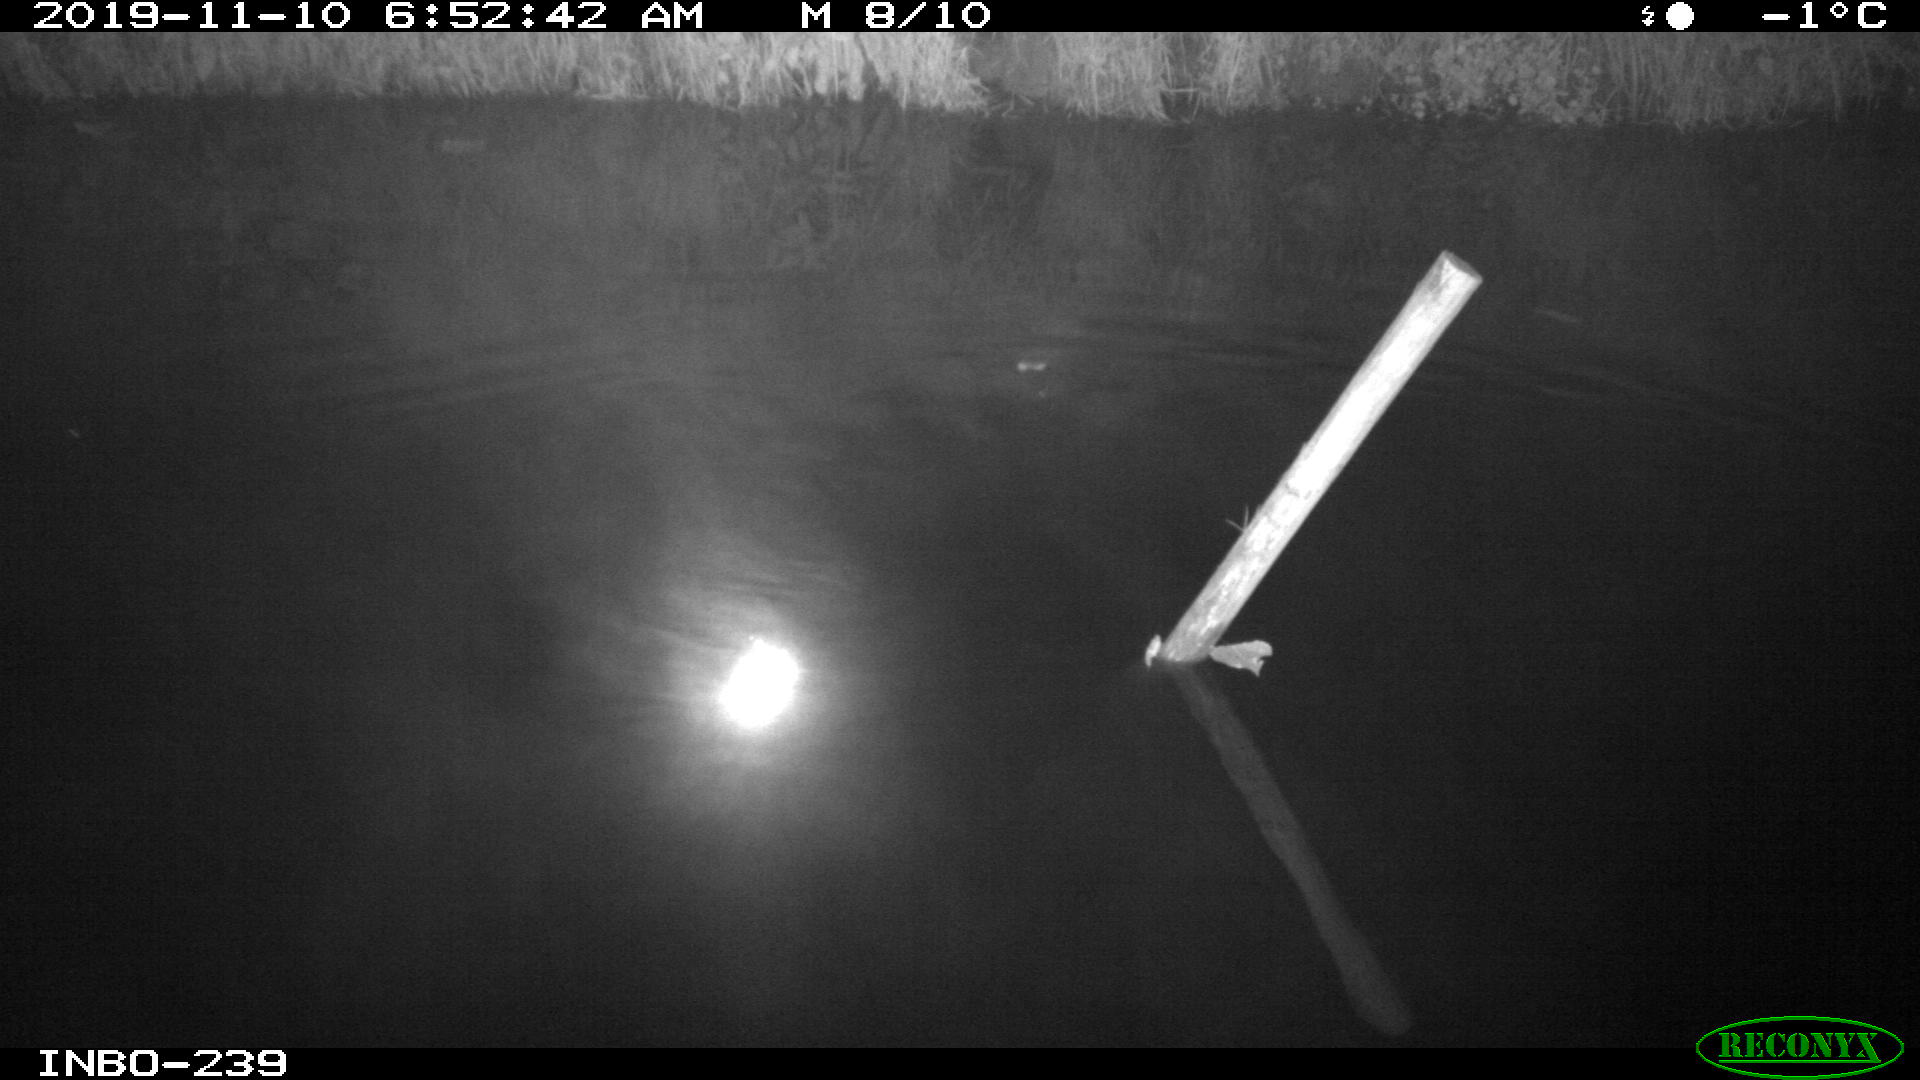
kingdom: Animalia
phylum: Chordata
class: Aves
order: Anseriformes
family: Anatidae
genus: Anas
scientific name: Anas platyrhynchos
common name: Mallard
